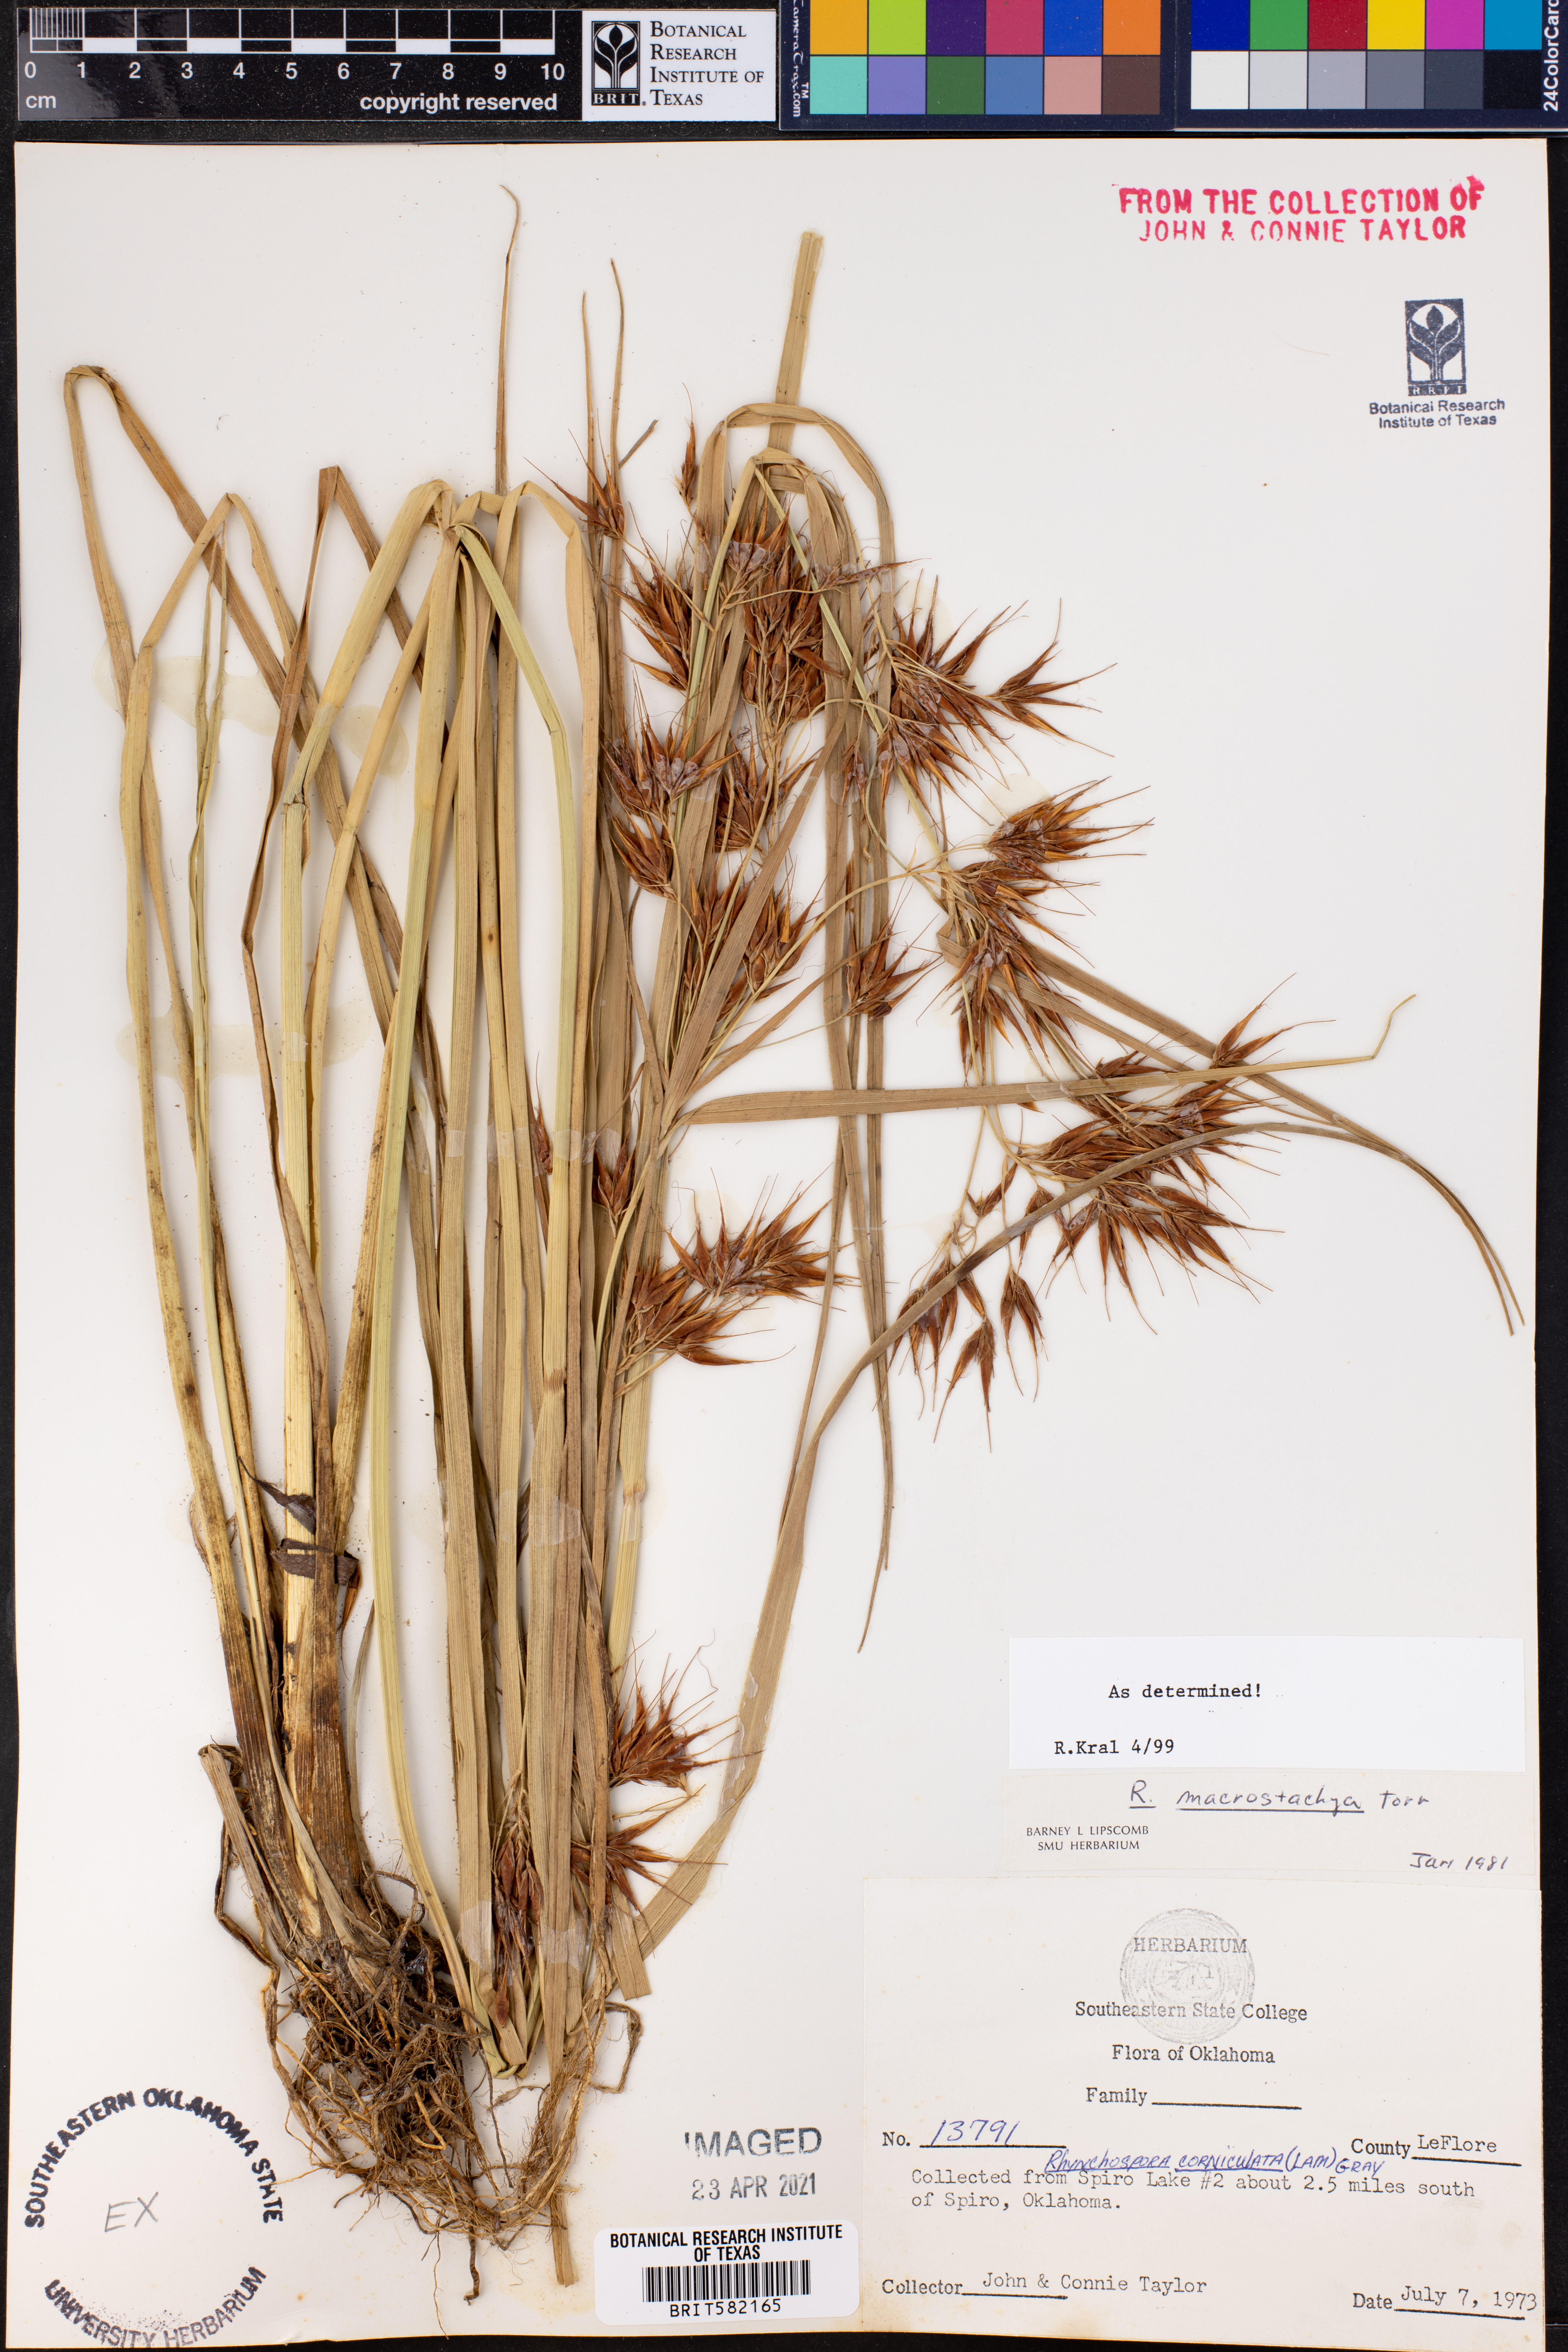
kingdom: Plantae
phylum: Tracheophyta
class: Liliopsida
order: Poales
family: Cyperaceae
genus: Rhynchospora
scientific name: Rhynchospora macrostachya
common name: Tall beakrush
